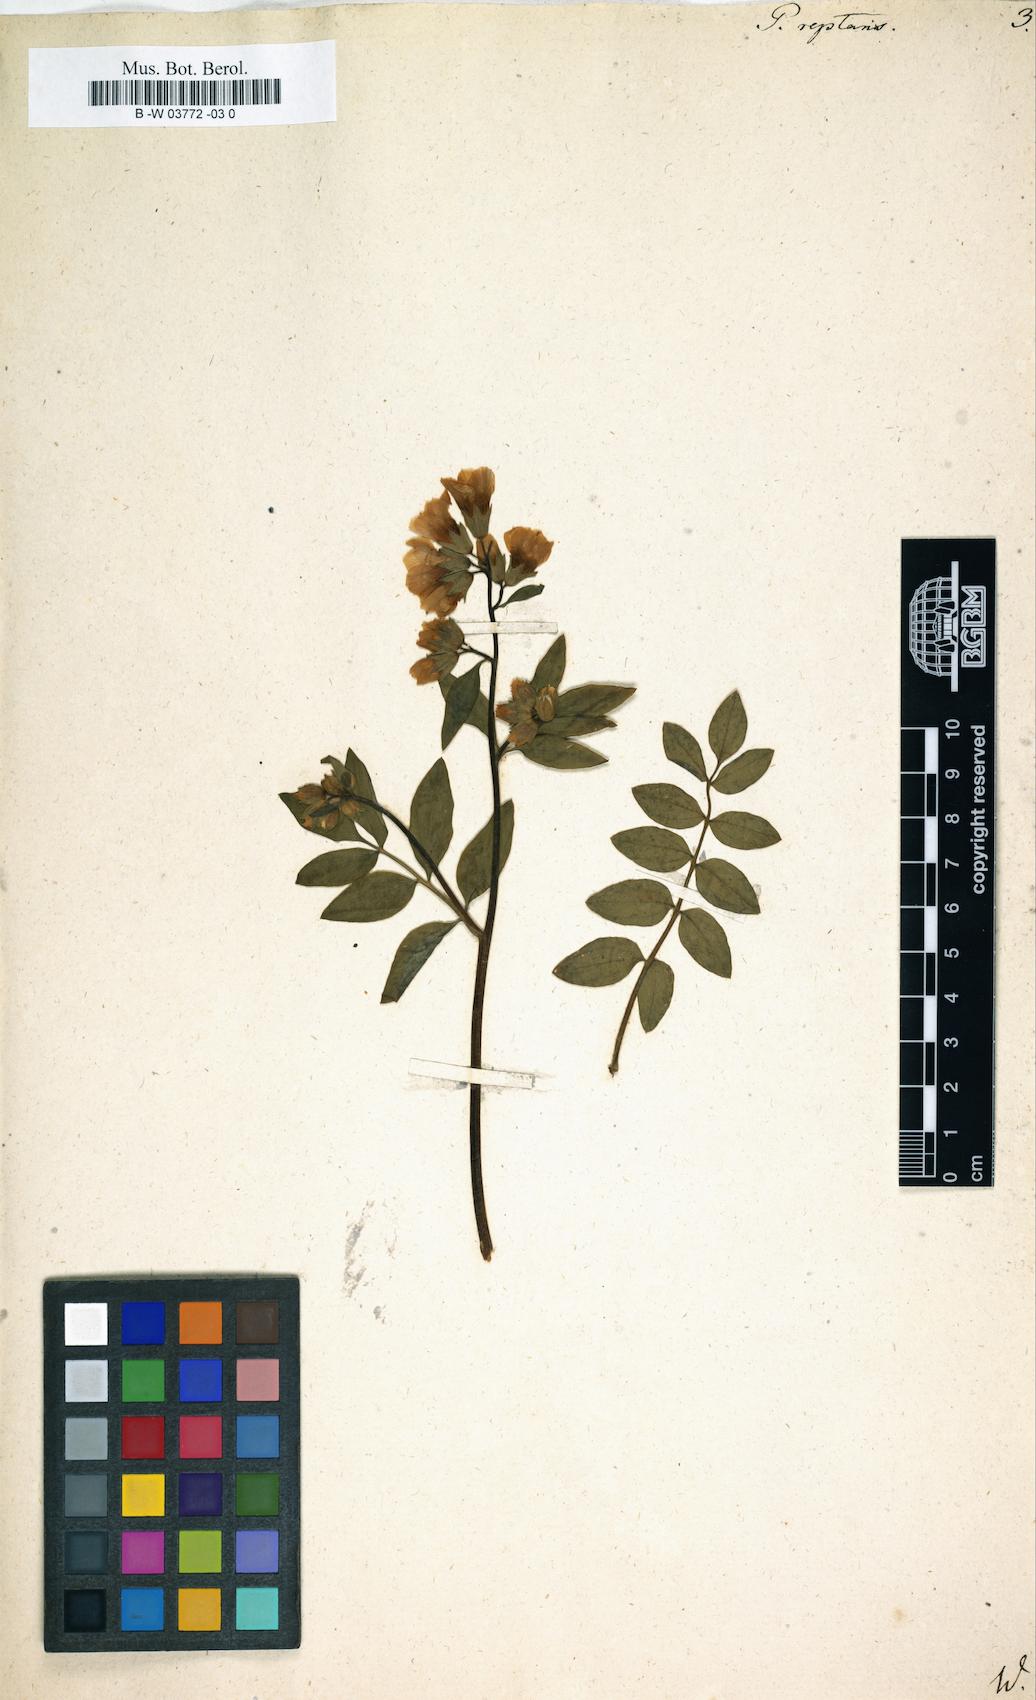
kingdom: Plantae
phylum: Tracheophyta
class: Magnoliopsida
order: Ericales
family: Polemoniaceae
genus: Polemonium
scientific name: Polemonium reptans
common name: Creeping jacob's-ladder
